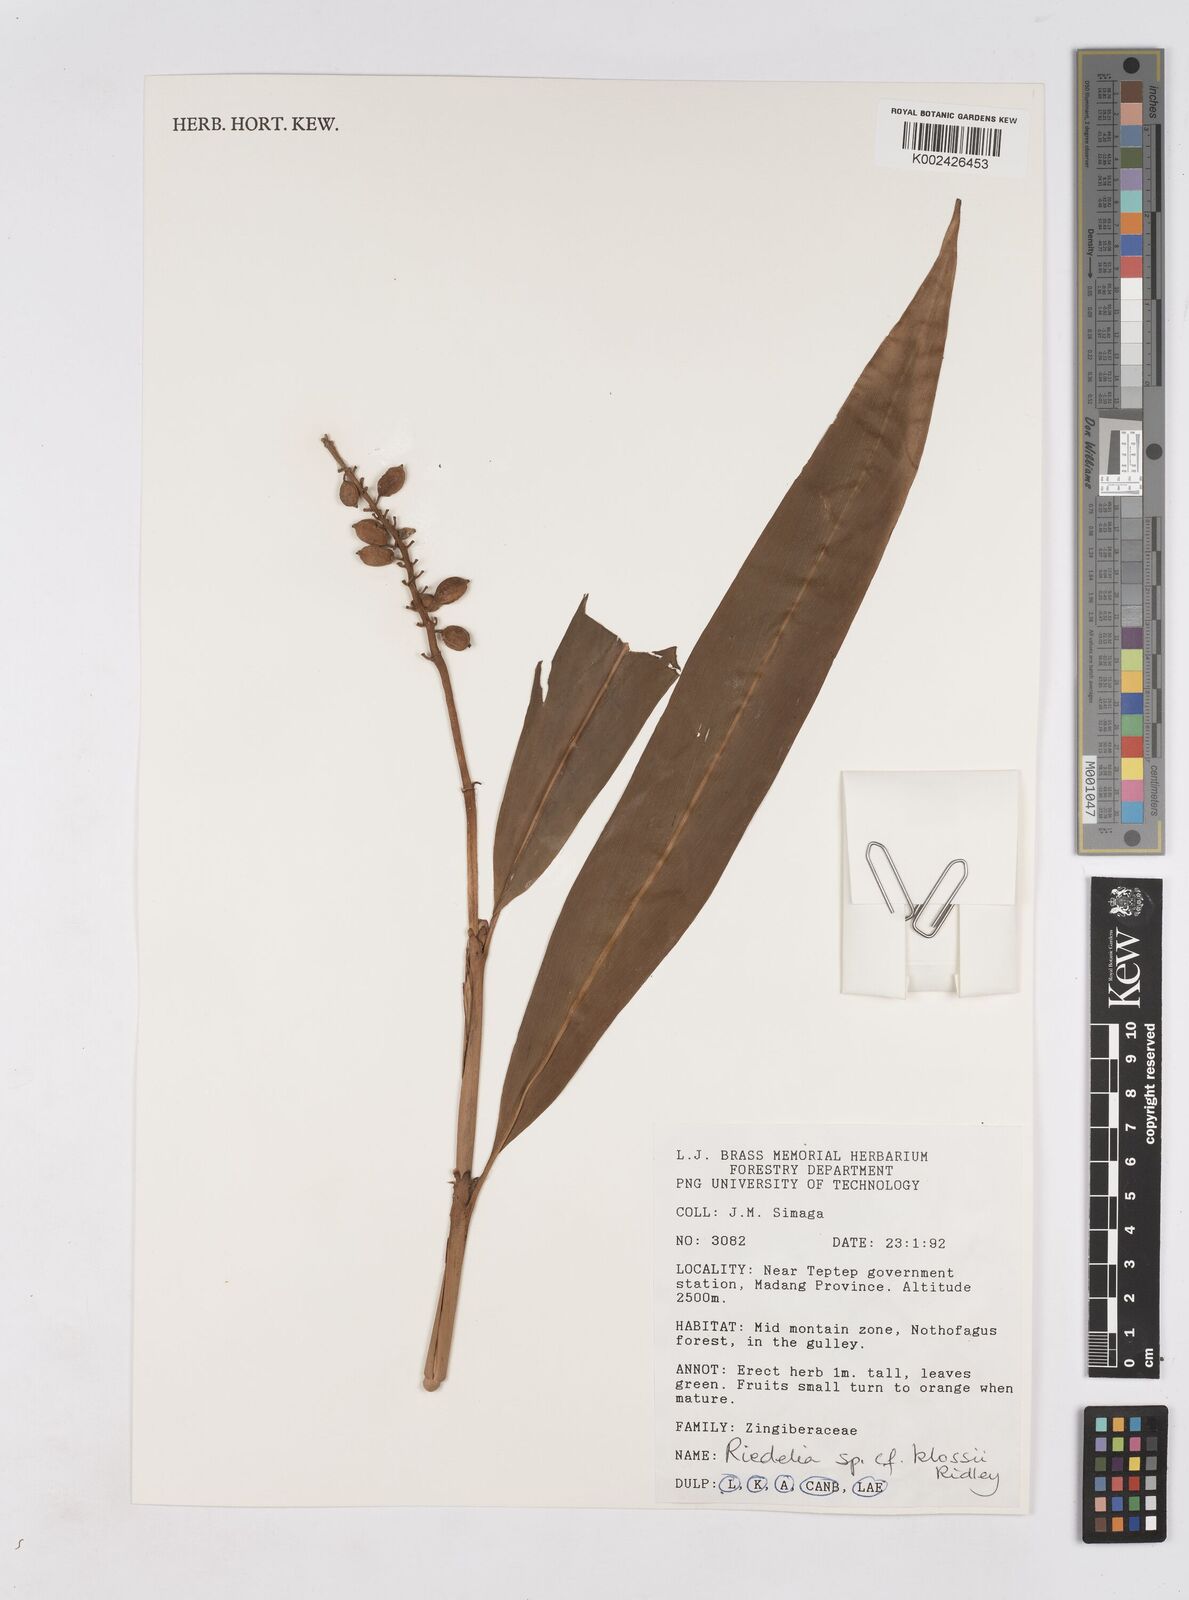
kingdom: Plantae
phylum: Tracheophyta
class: Liliopsida
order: Zingiberales
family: Zingiberaceae
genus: Riedelia
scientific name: Riedelia klossii
